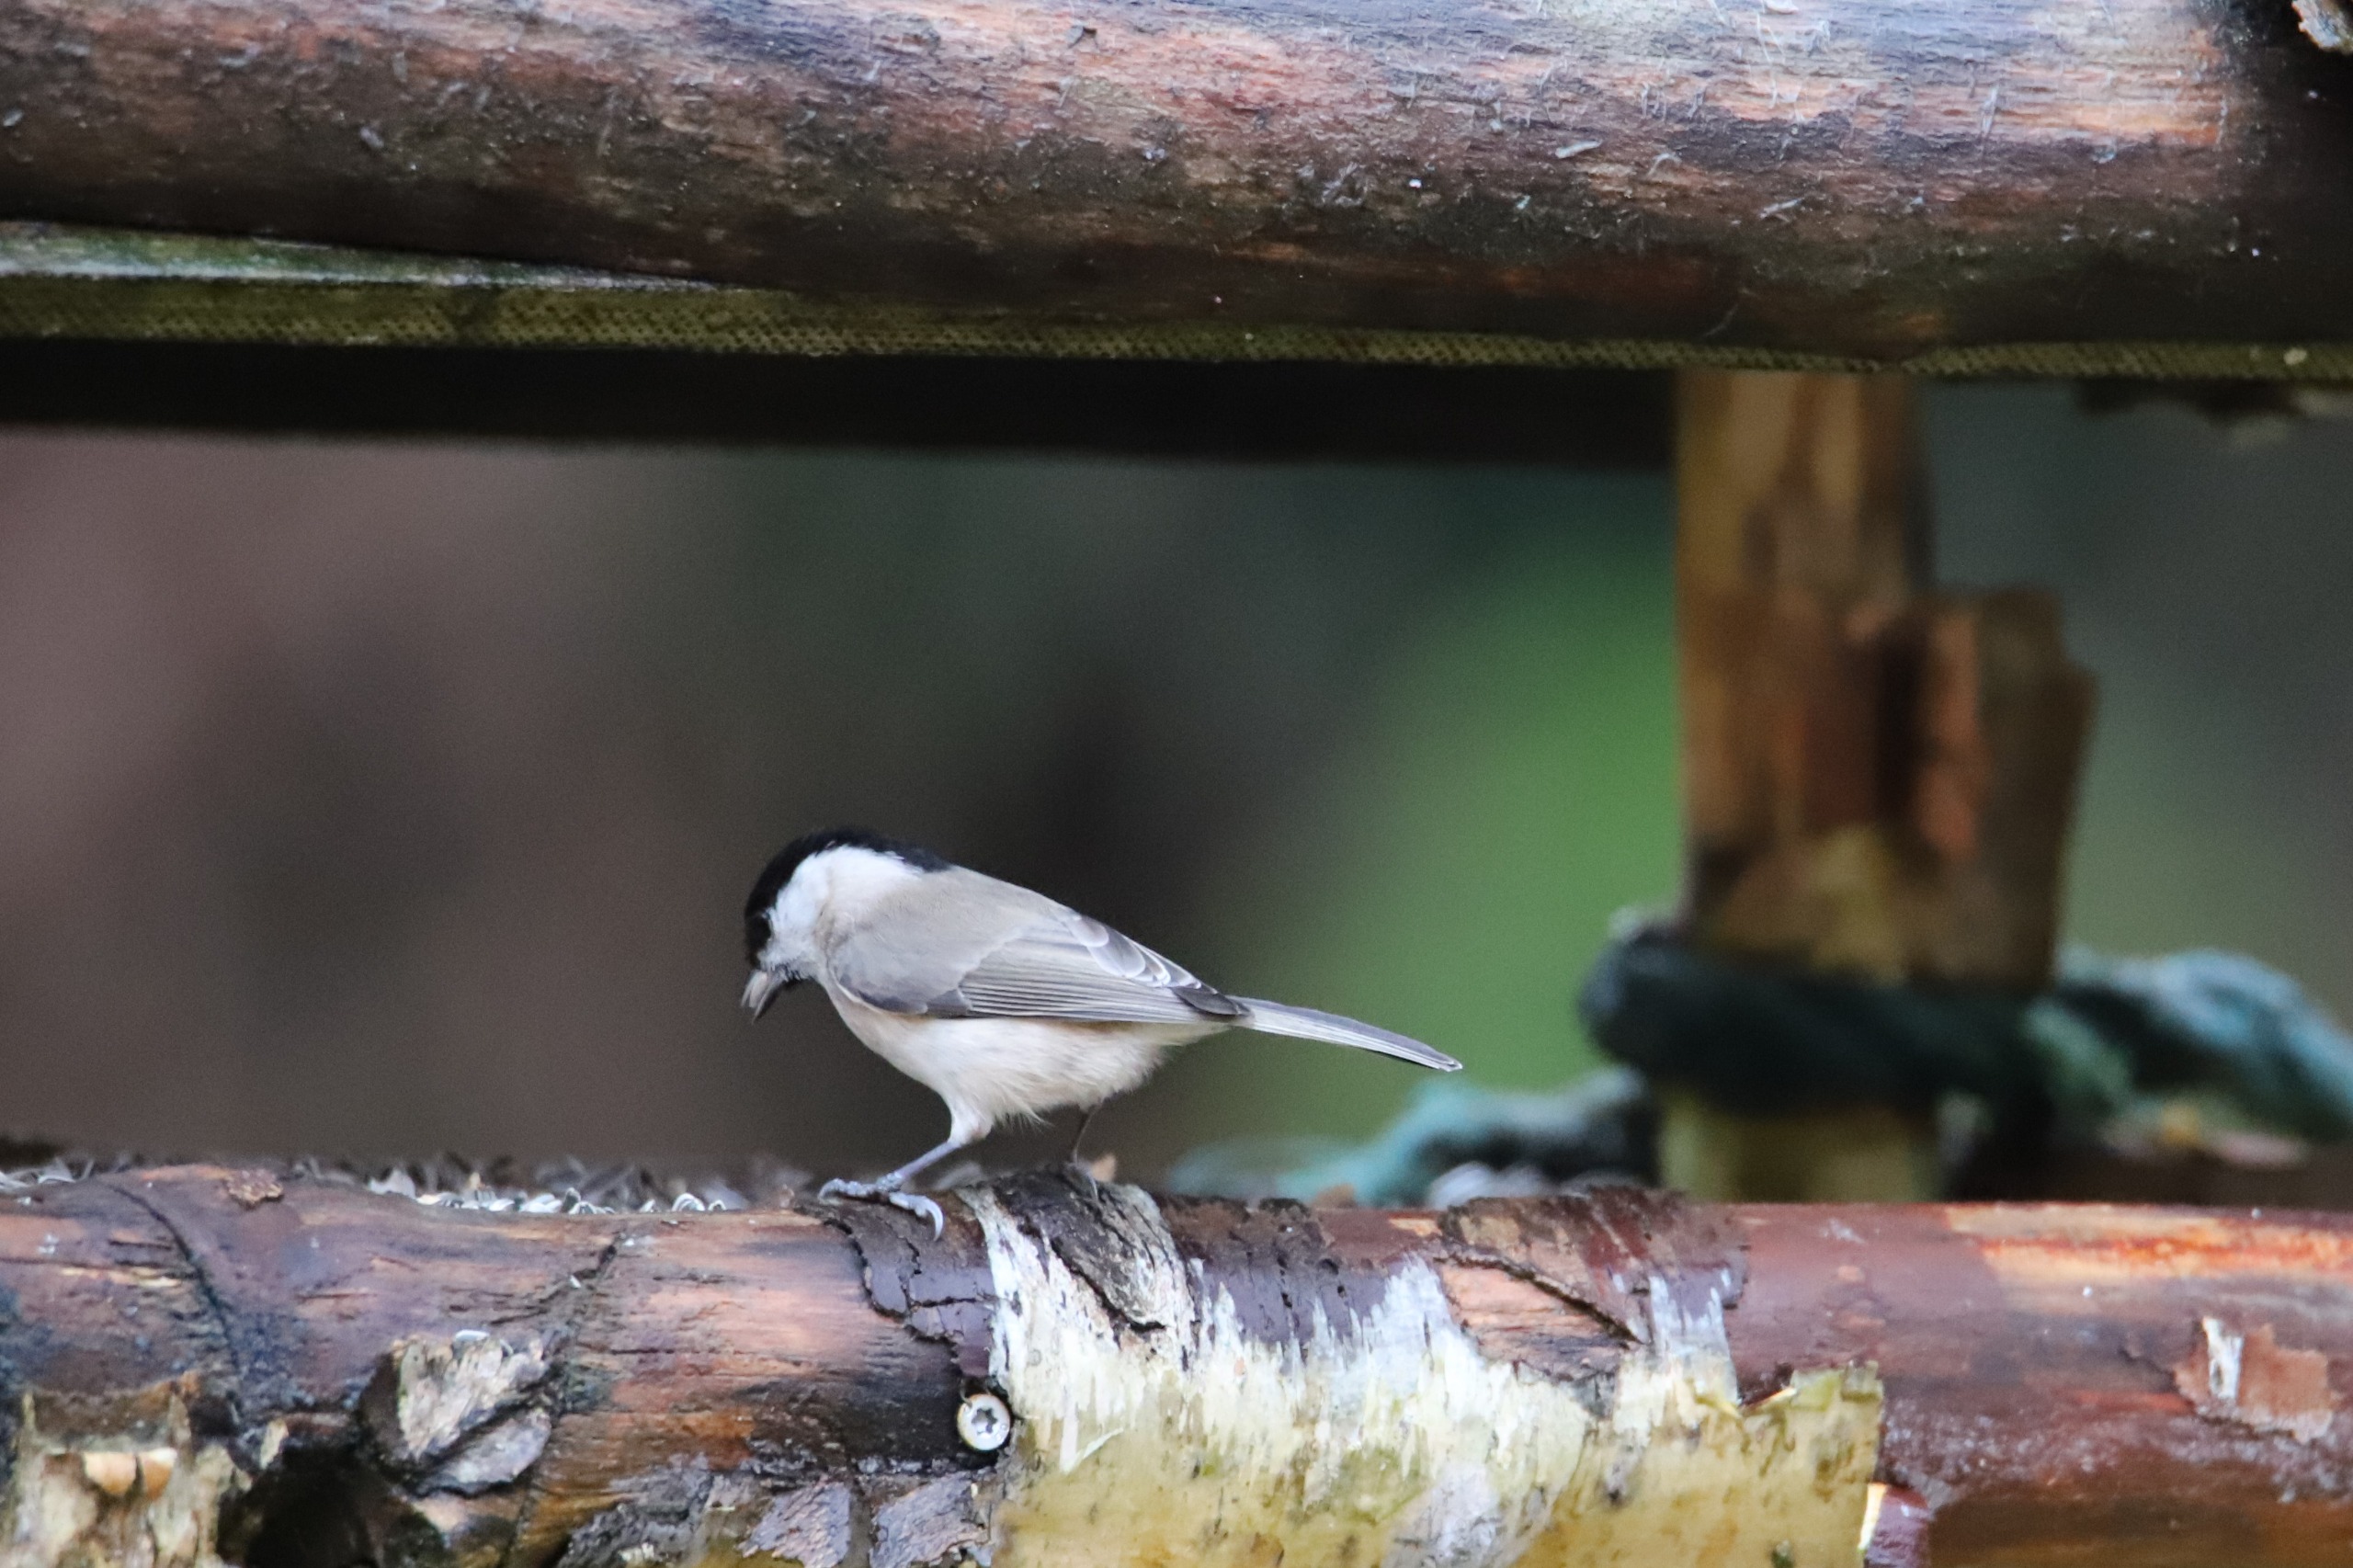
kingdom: Animalia
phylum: Chordata
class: Aves
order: Passeriformes
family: Paridae
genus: Poecile
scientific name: Poecile palustris
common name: Sumpmejse
